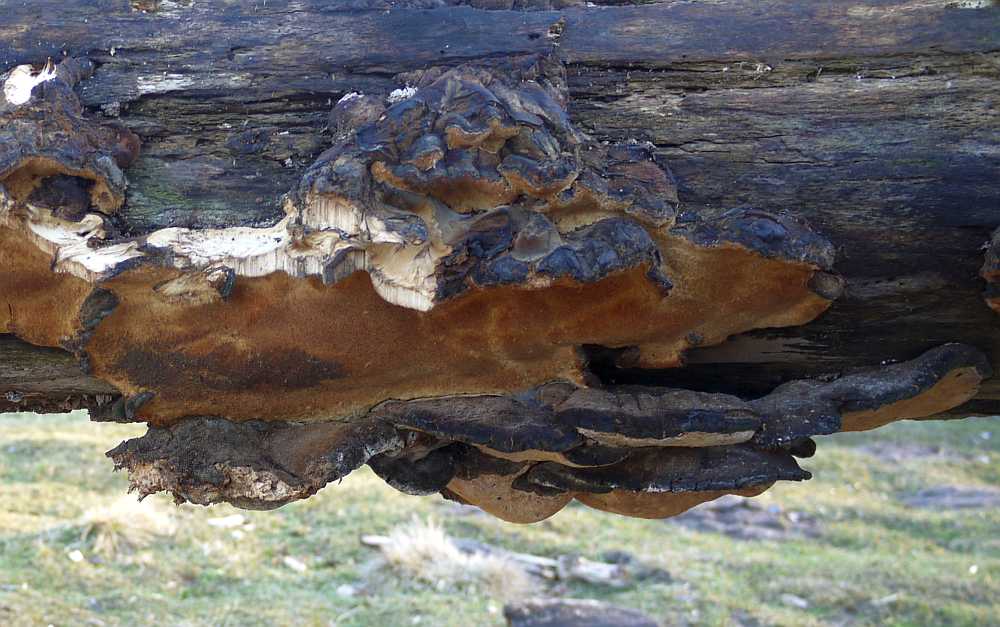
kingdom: Fungi
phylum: Basidiomycota
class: Agaricomycetes
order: Polyporales
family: Ischnodermataceae
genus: Ischnoderma
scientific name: Ischnoderma resinosum
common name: løv-tjæreporesvamp
